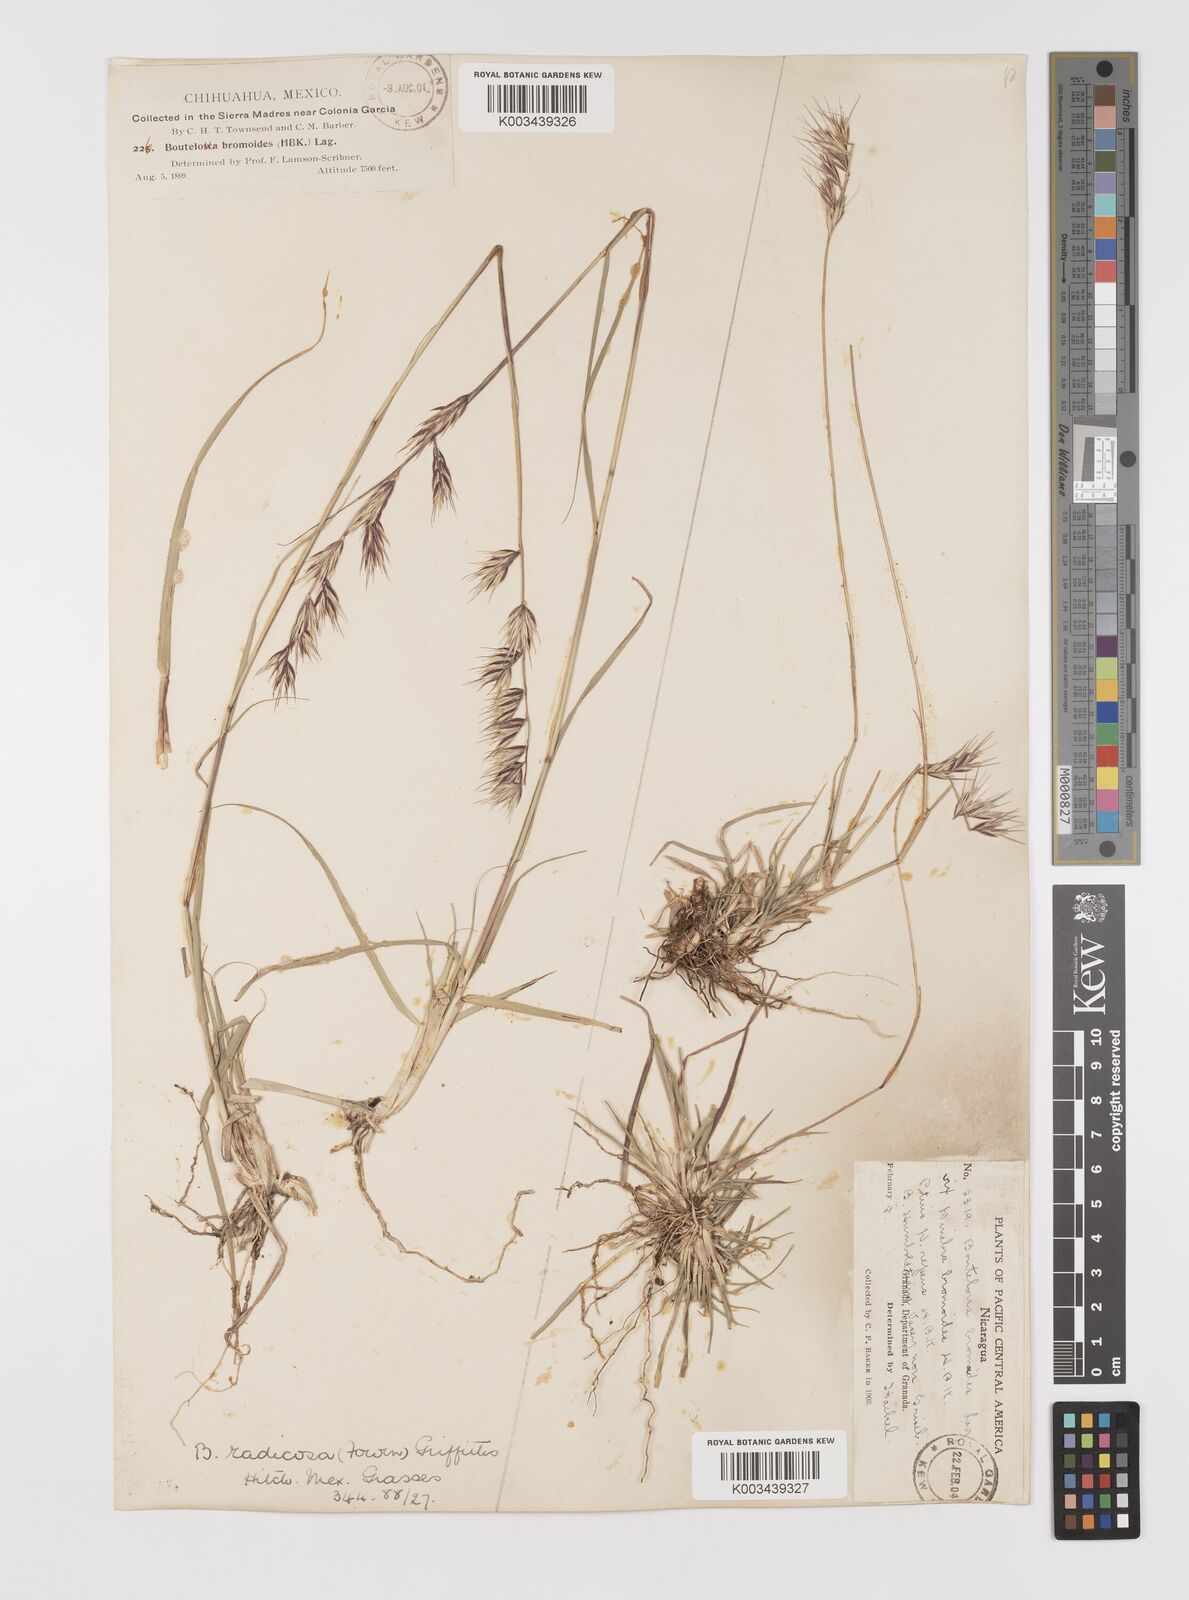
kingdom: Plantae
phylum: Tracheophyta
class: Liliopsida
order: Poales
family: Poaceae
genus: Bouteloua
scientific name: Bouteloua radicosa
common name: Purple grama
